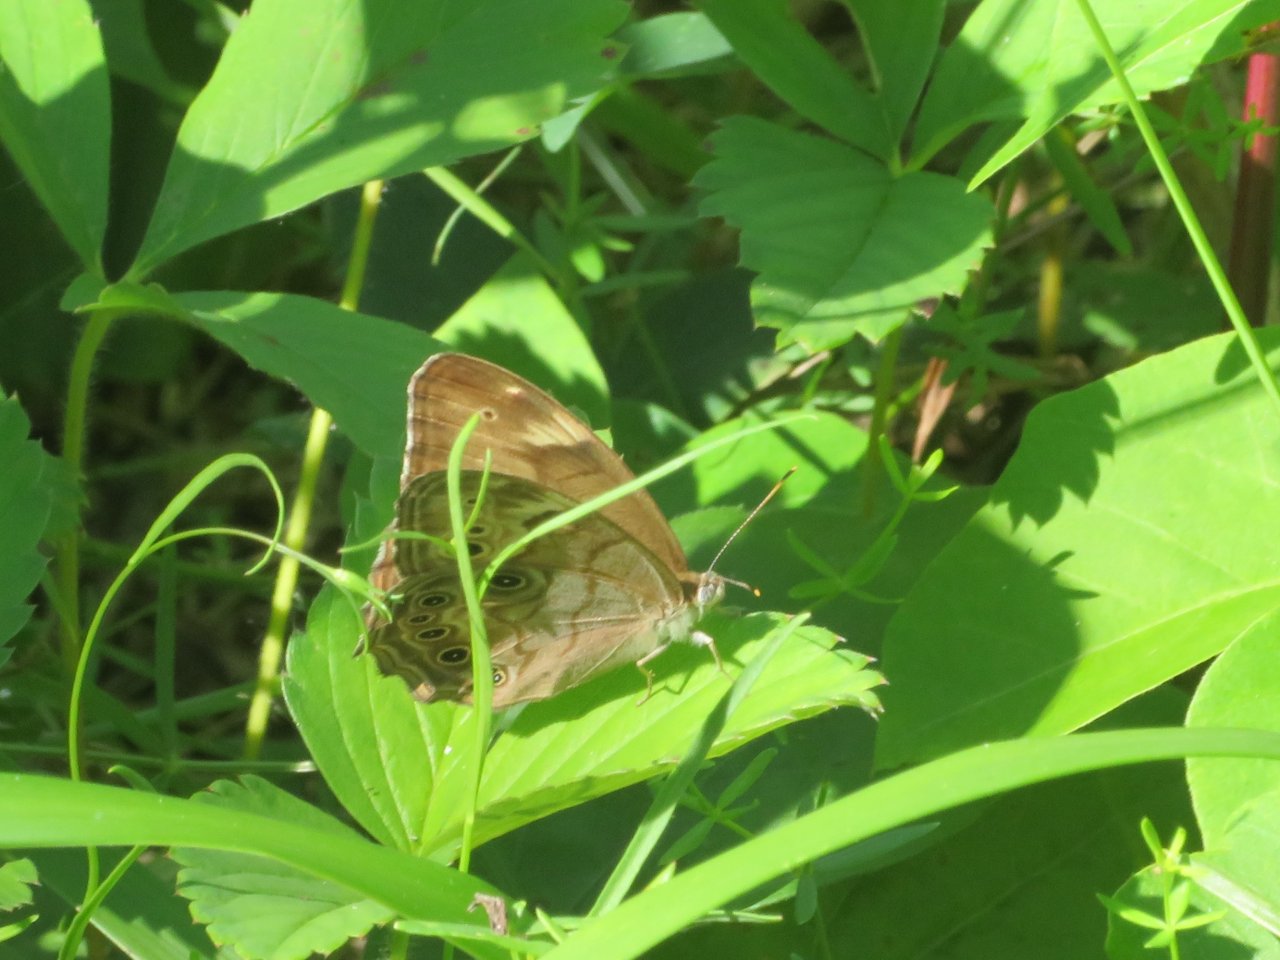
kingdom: Animalia
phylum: Arthropoda
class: Insecta
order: Lepidoptera
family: Nymphalidae
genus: Lethe
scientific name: Lethe anthedon
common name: Northern Pearly-Eye
